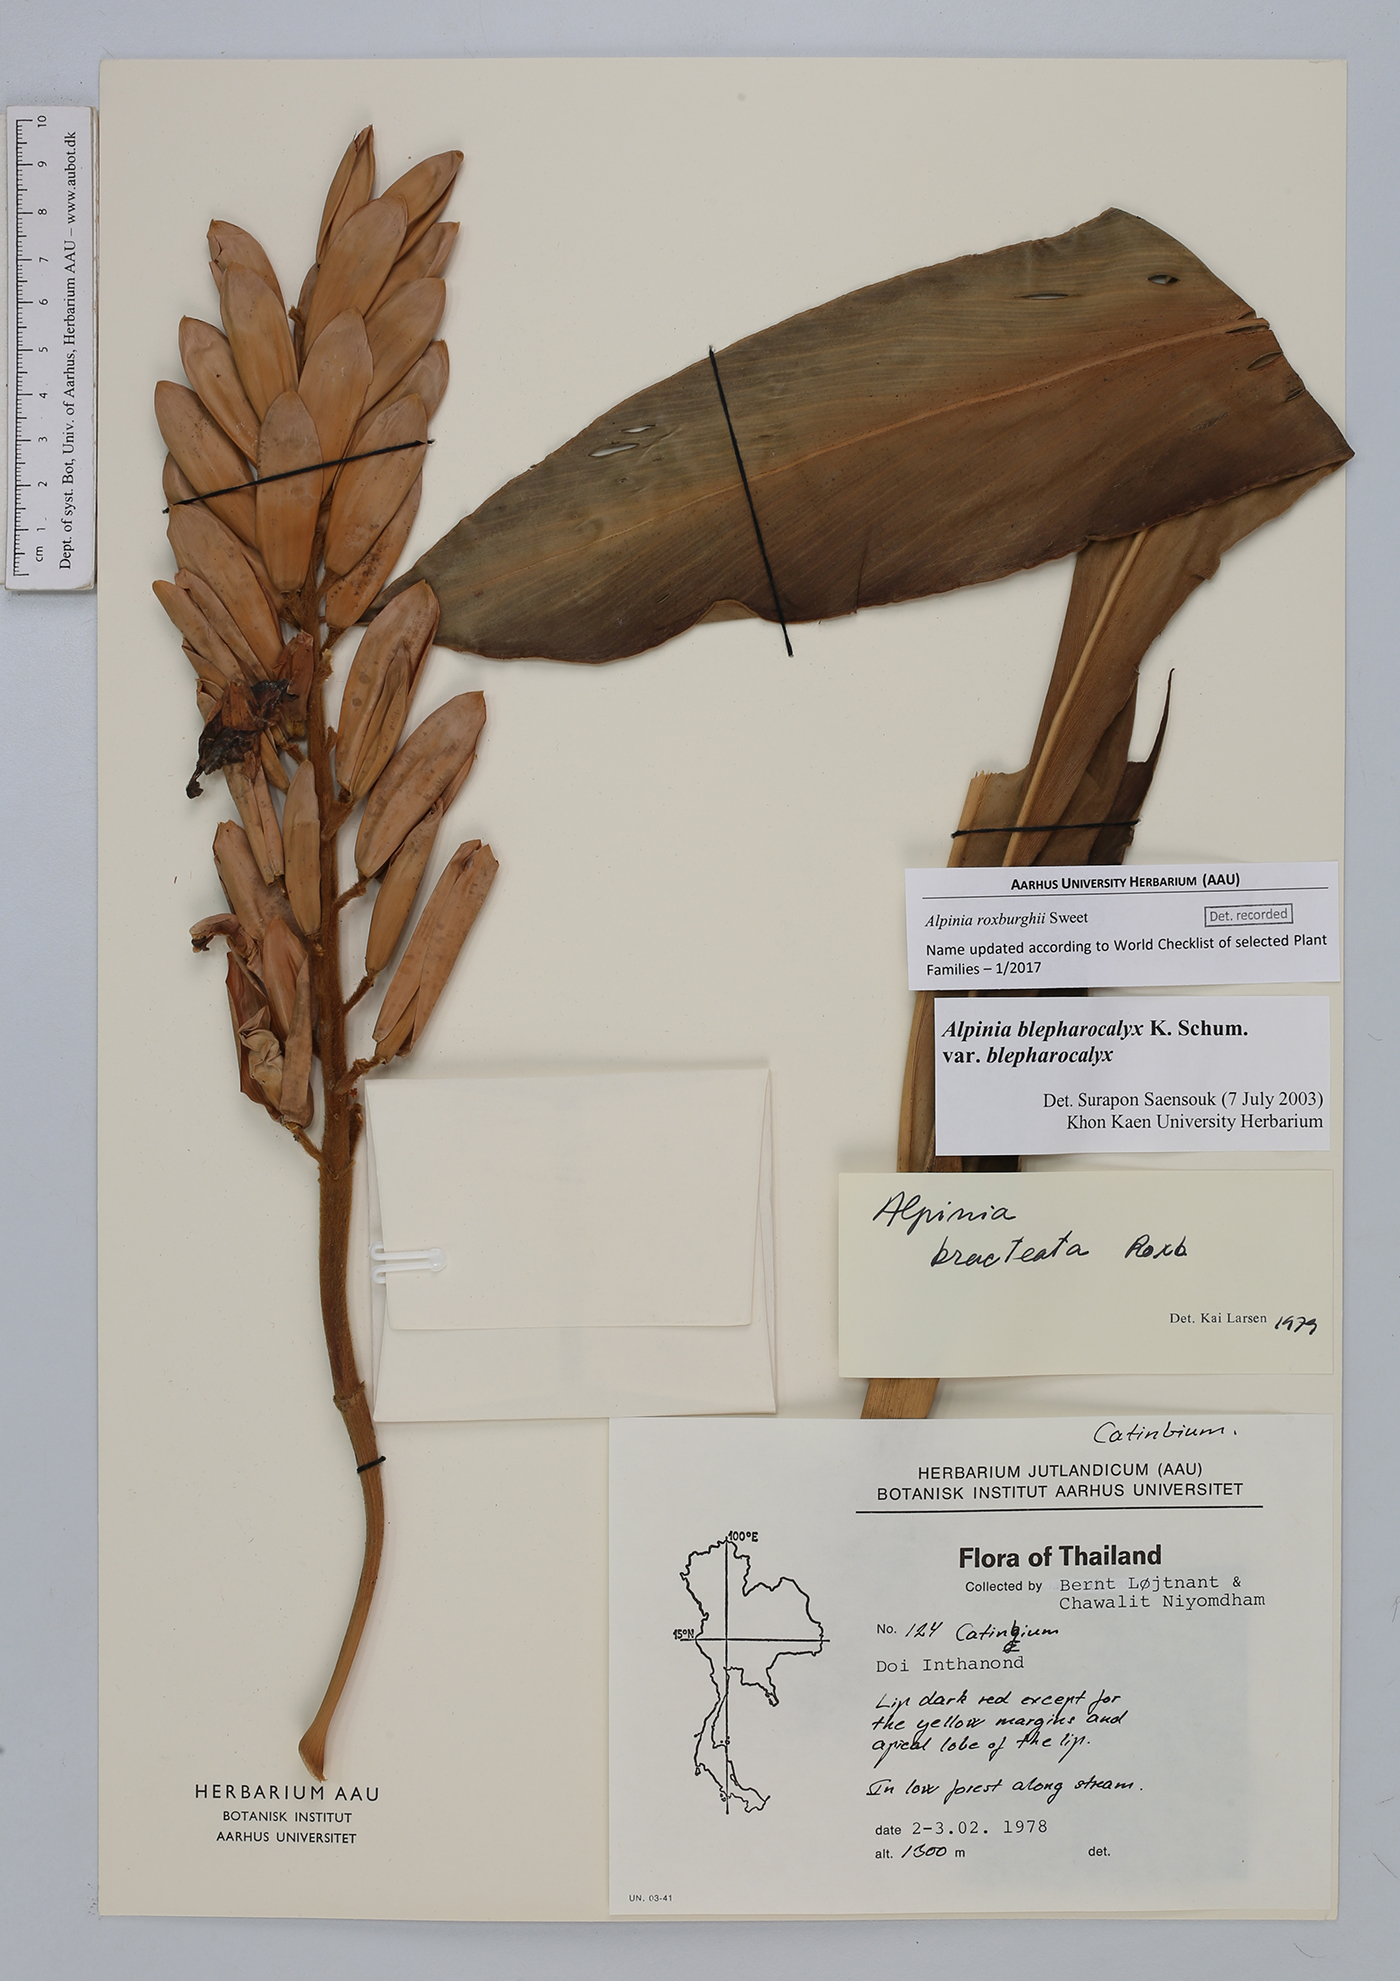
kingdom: Plantae
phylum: Tracheophyta
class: Liliopsida
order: Zingiberales
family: Zingiberaceae
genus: Alpinia
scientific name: Alpinia roxburghii
